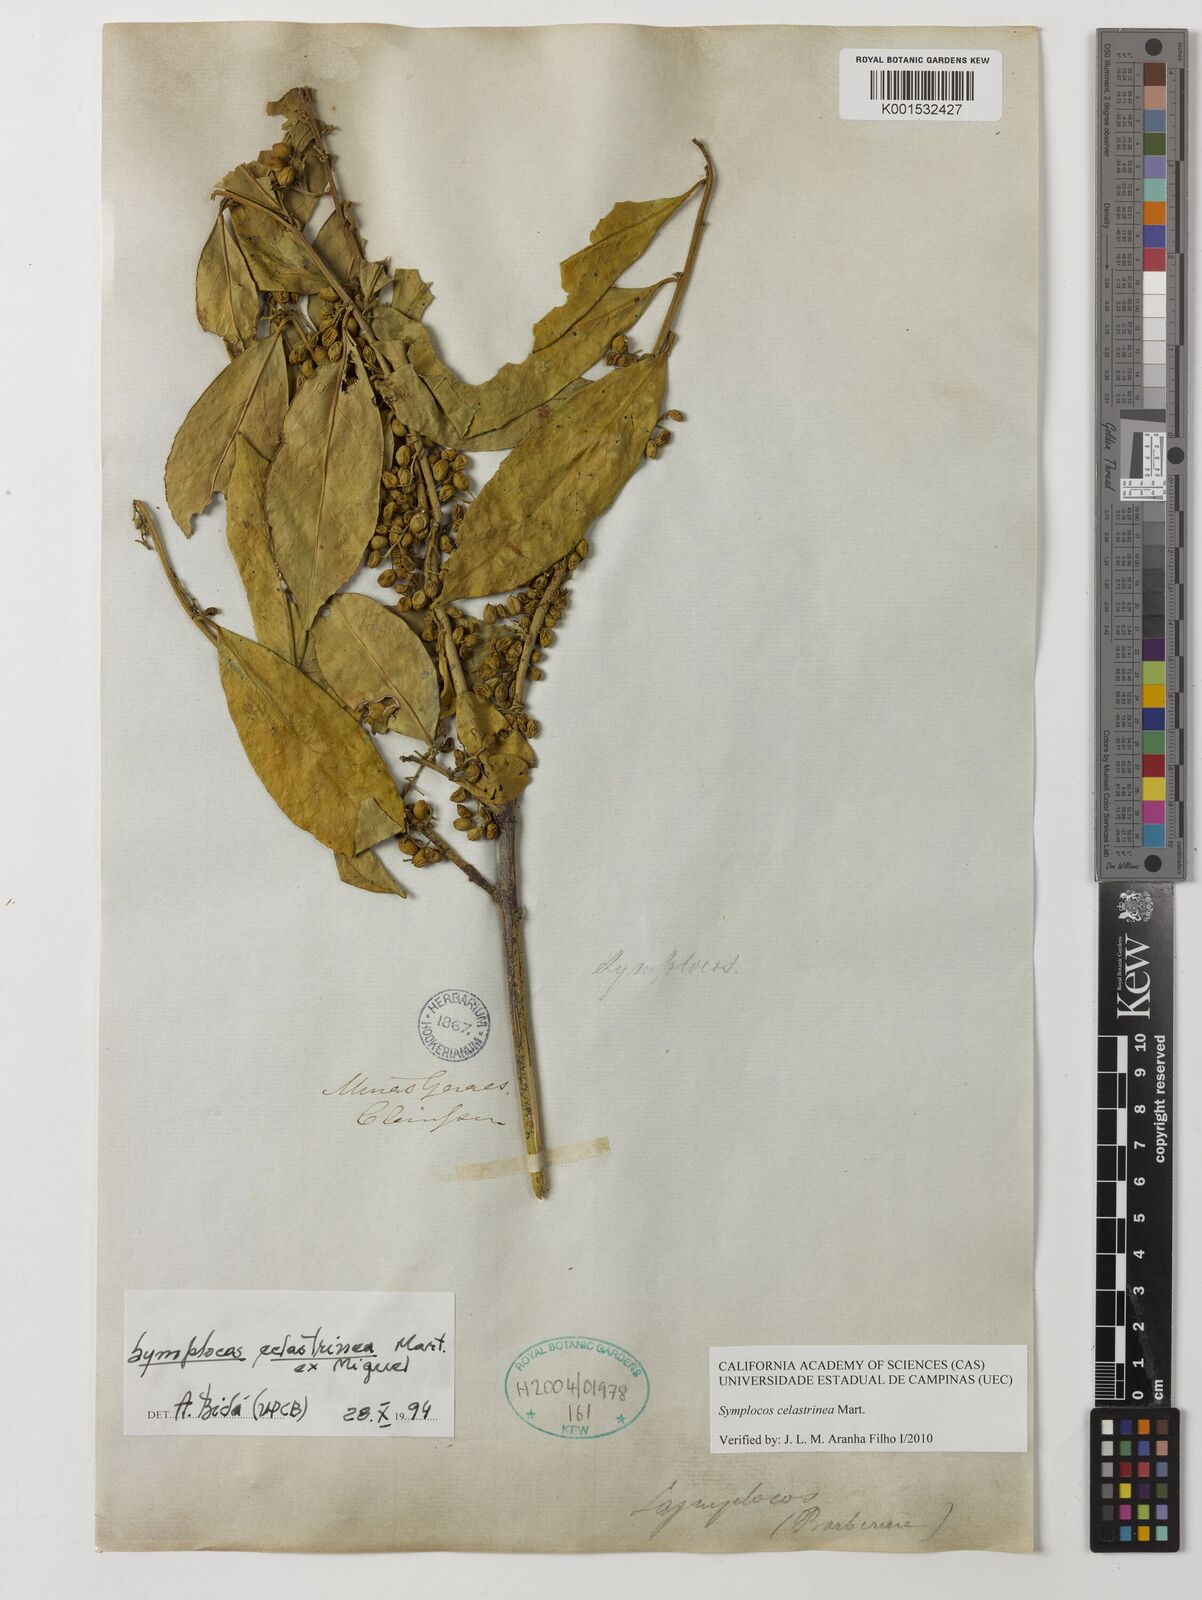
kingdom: Plantae
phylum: Tracheophyta
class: Magnoliopsida
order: Ericales
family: Symplocaceae
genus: Symplocos
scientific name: Symplocos celastrinea
